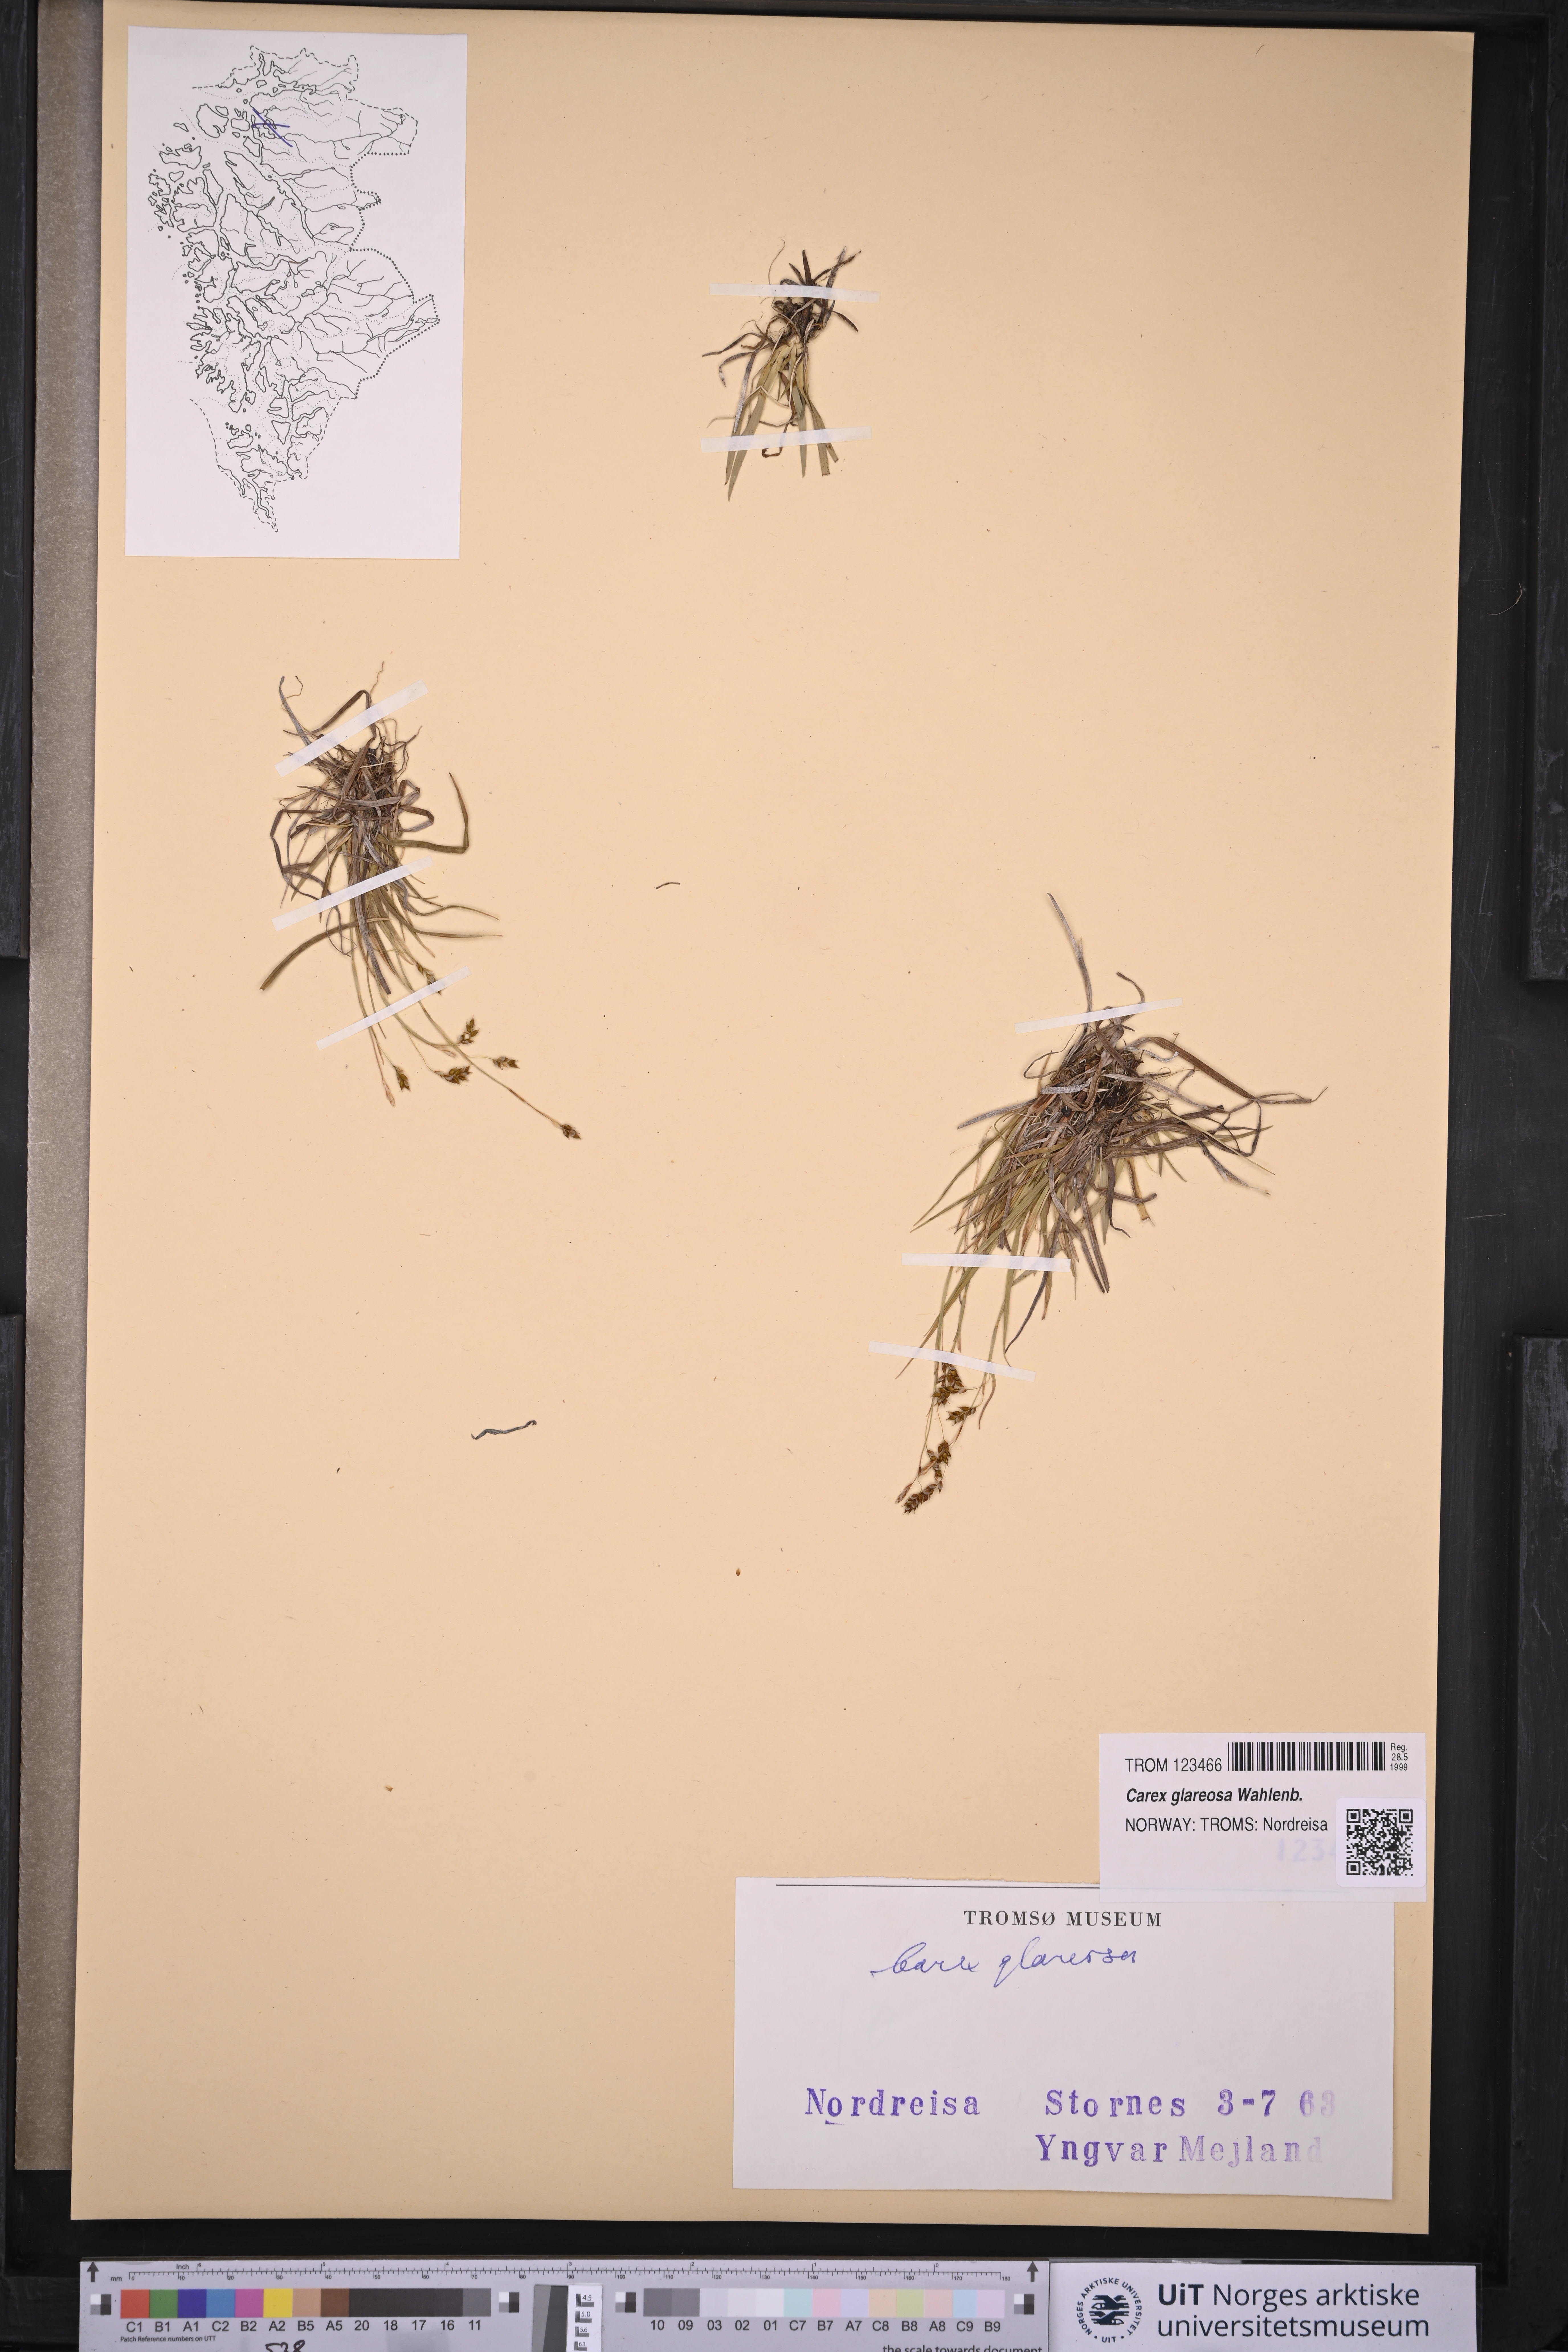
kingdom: Plantae
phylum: Tracheophyta
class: Liliopsida
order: Poales
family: Cyperaceae
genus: Carex
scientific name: Carex glareosa
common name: Clustered sedge
